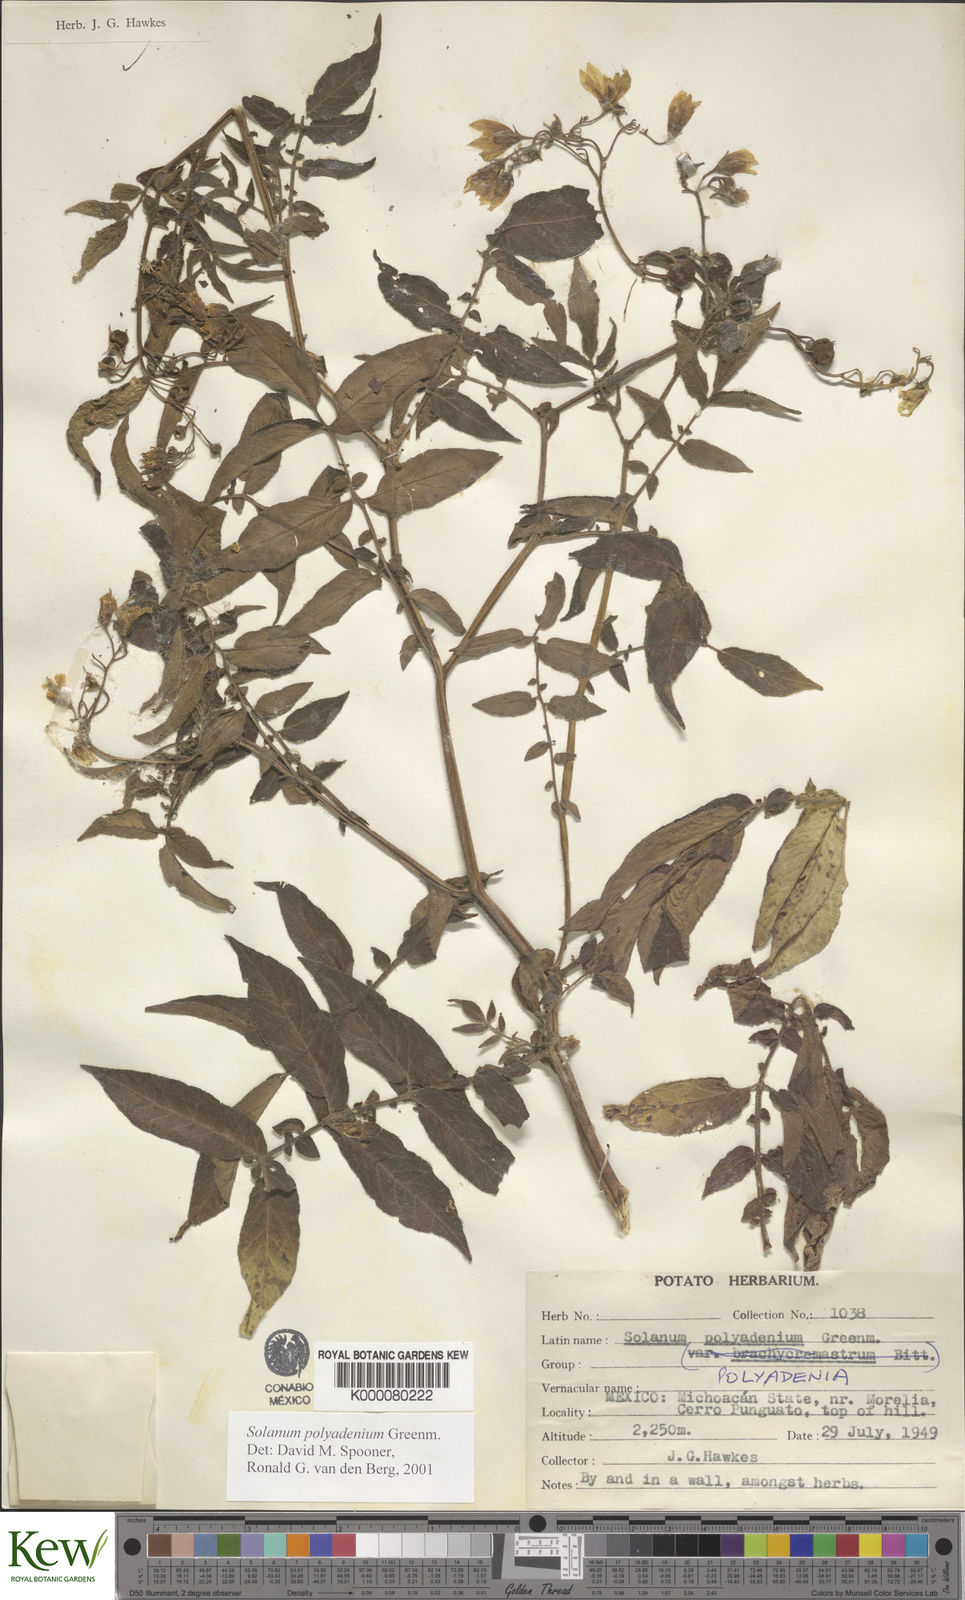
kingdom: Plantae
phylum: Tracheophyta
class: Magnoliopsida
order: Solanales
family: Solanaceae
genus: Solanum
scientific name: Solanum polyadenium
